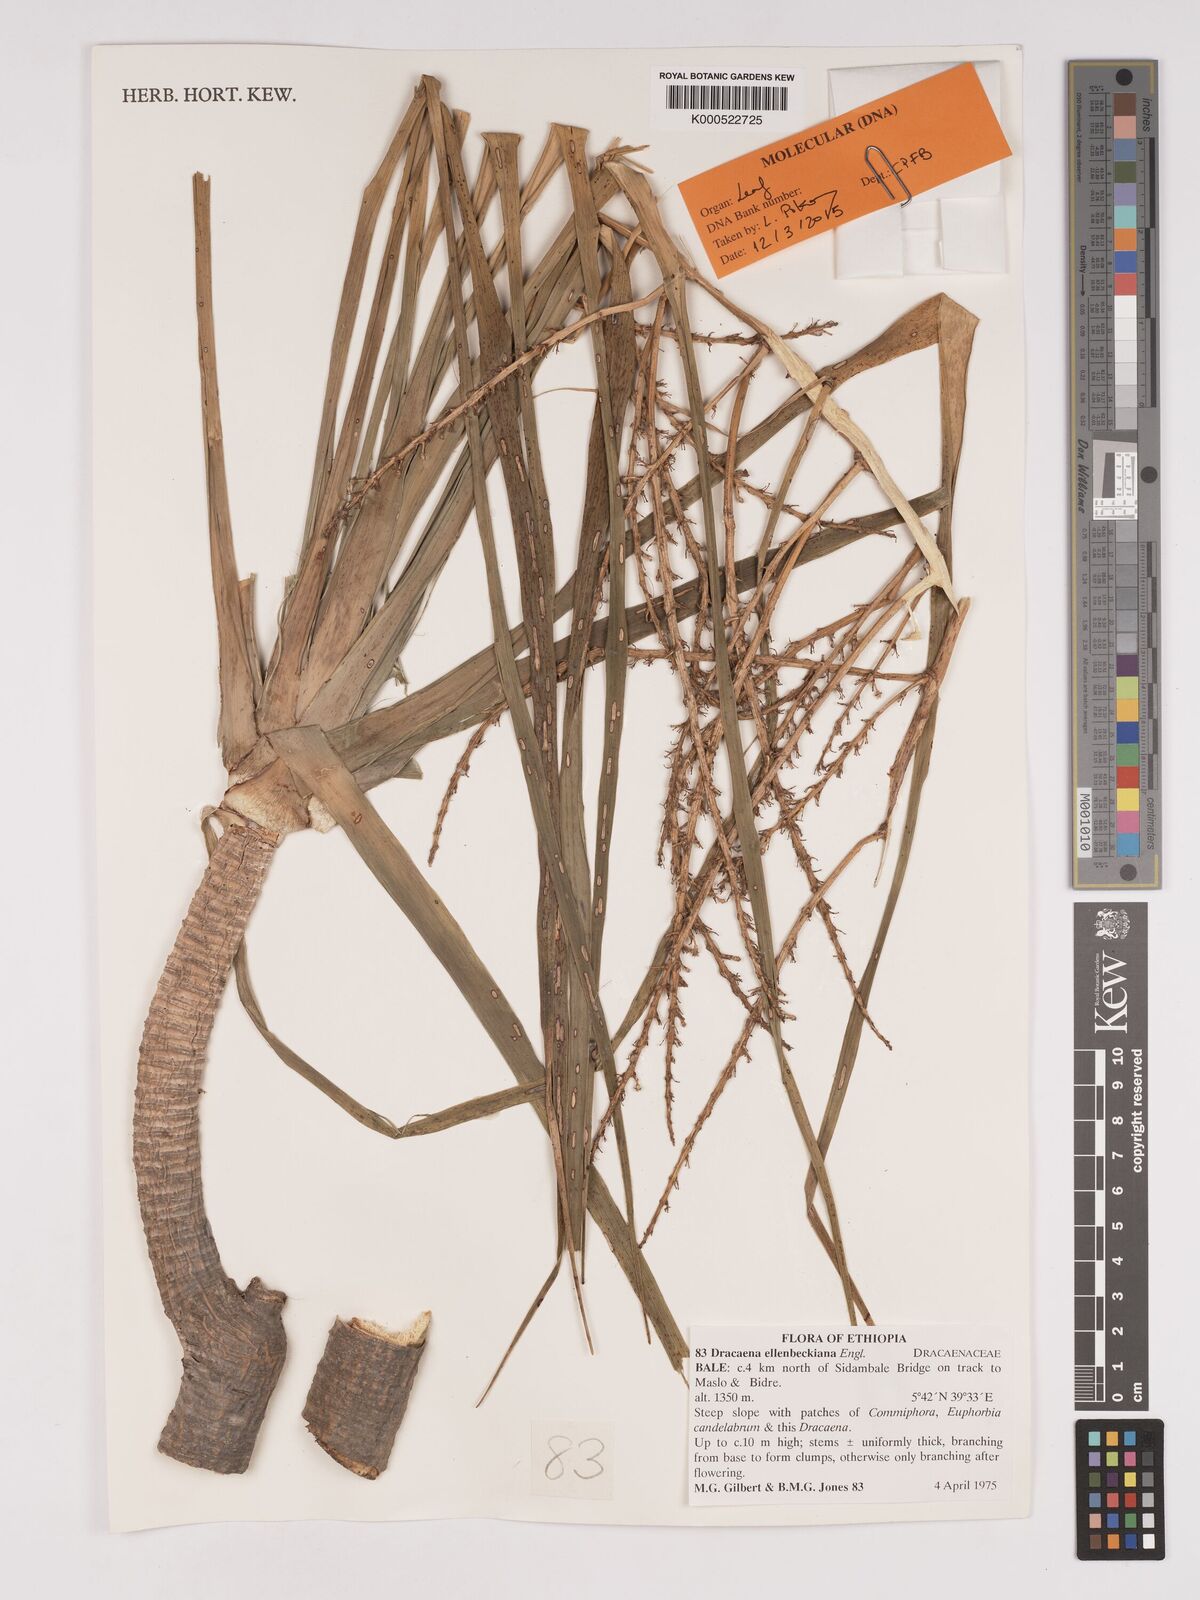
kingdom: Plantae
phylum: Tracheophyta
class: Liliopsida
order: Asparagales
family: Asparagaceae
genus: Dracaena
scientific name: Dracaena elliptica
